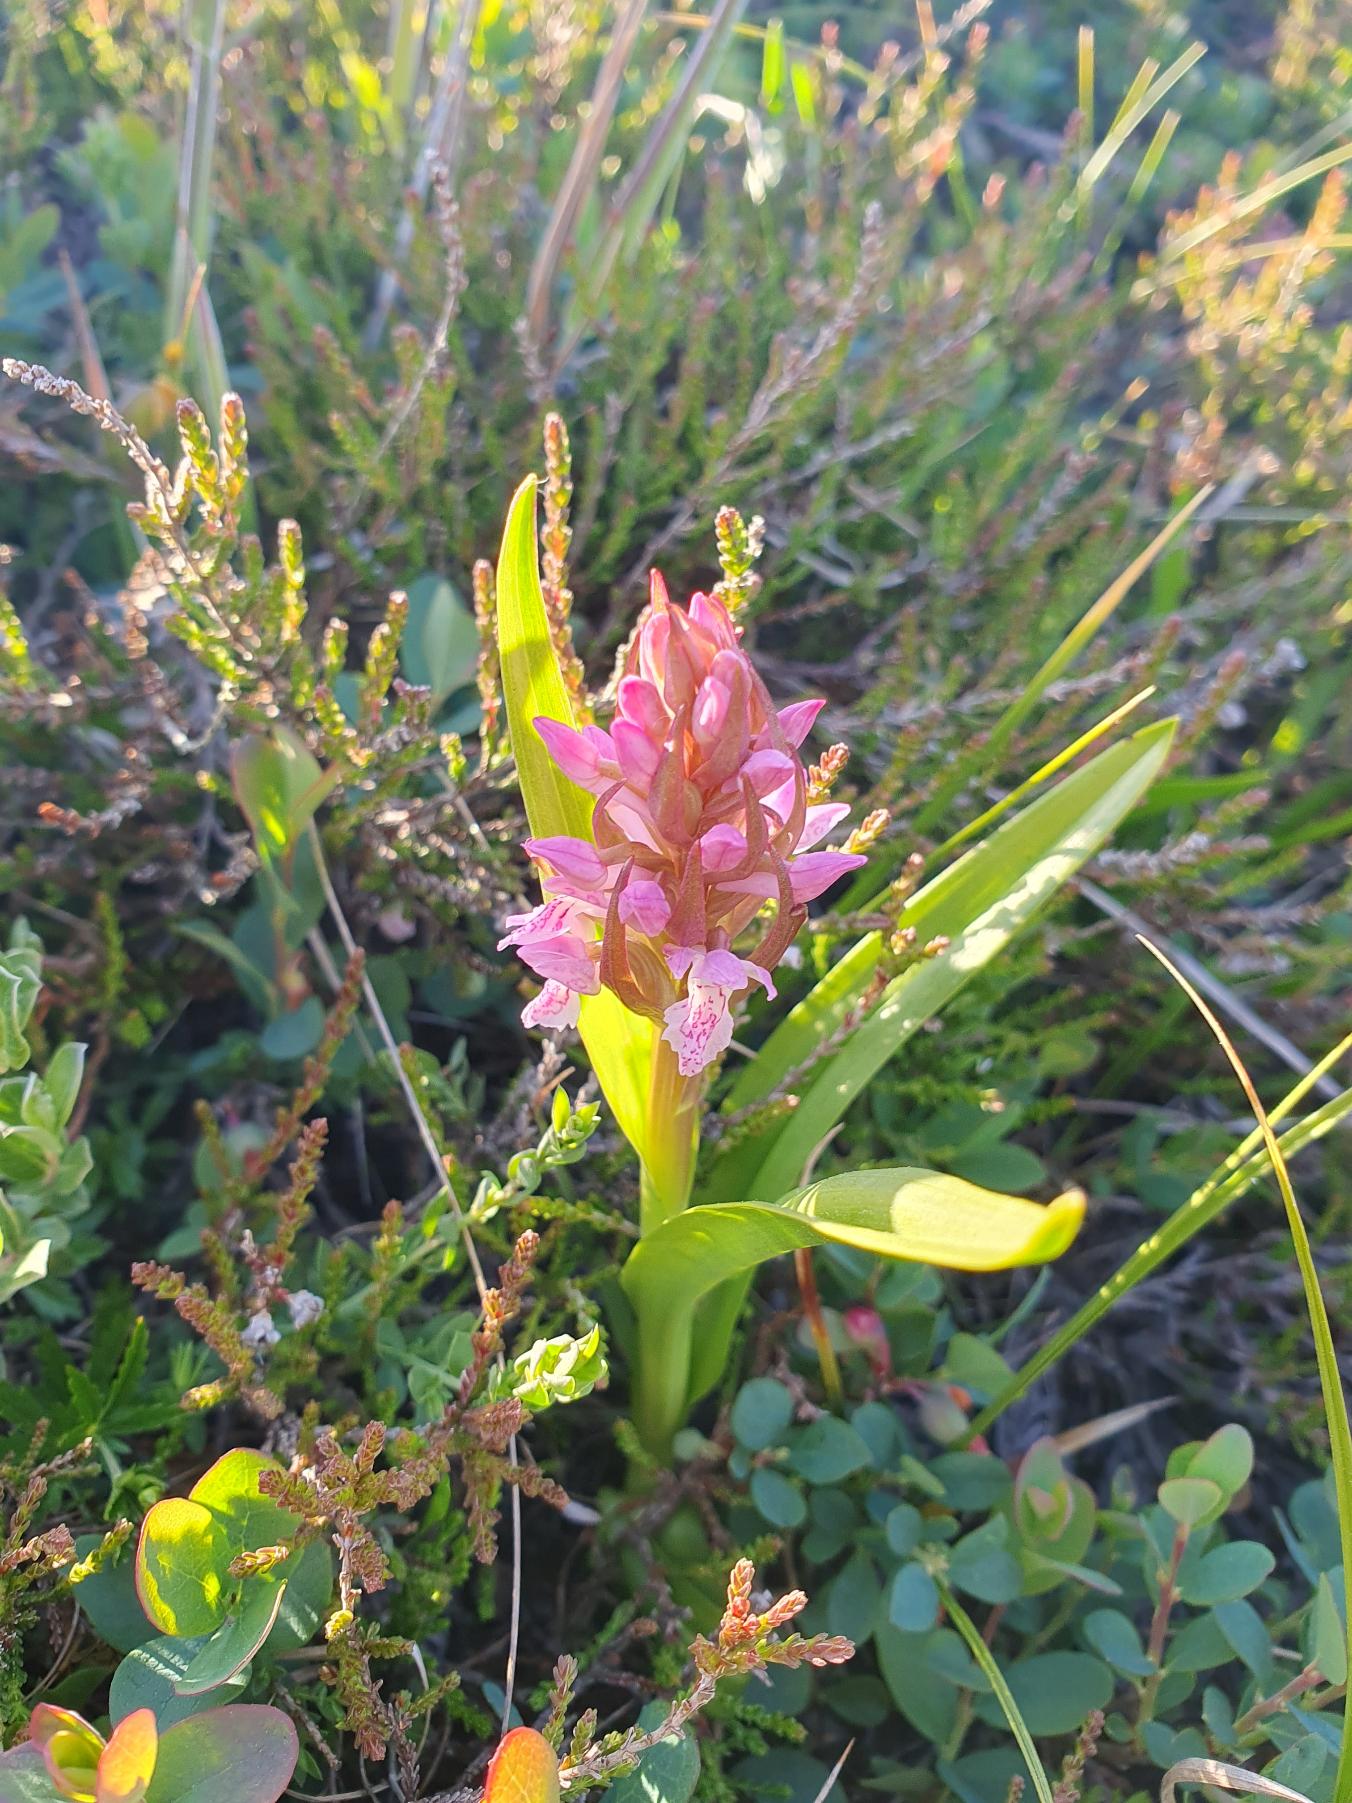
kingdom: Plantae
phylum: Tracheophyta
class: Liliopsida
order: Asparagales
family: Orchidaceae
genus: Dactylorhiza
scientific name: Dactylorhiza incarnata
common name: Kødfarvet gøgeurt
